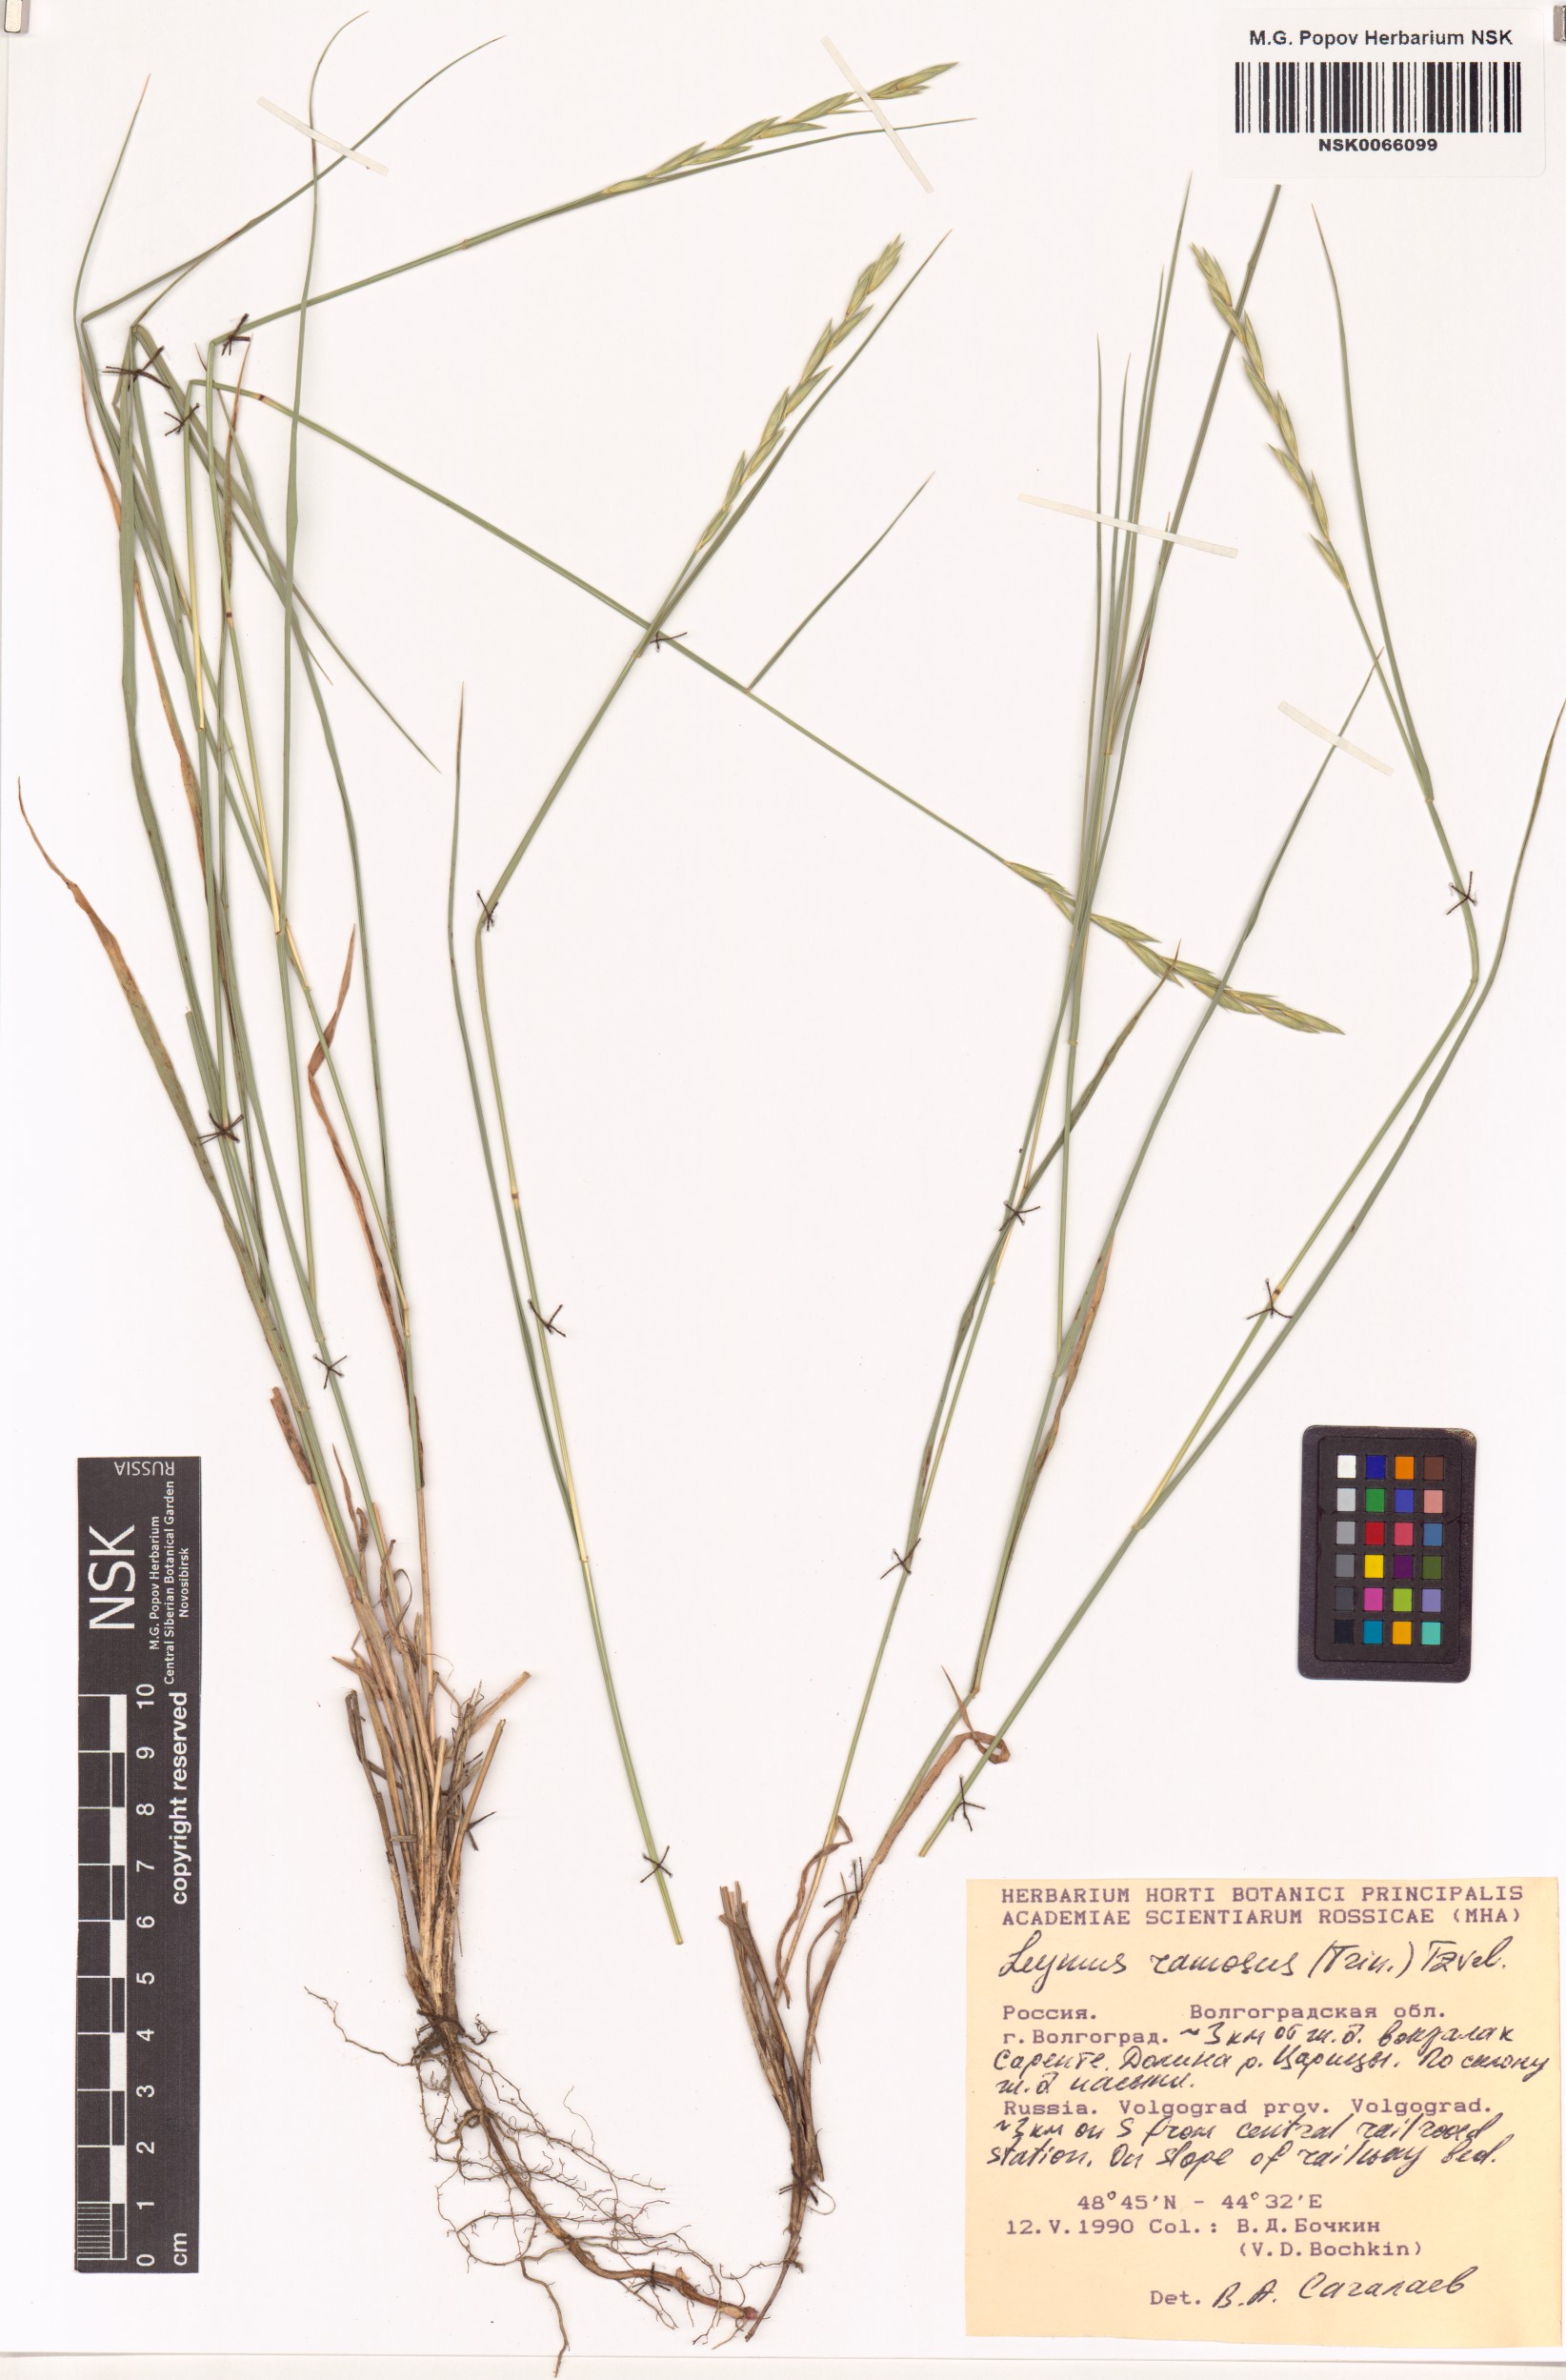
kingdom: Plantae
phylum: Tracheophyta
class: Liliopsida
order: Poales
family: Poaceae
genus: Leymus
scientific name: Leymus ramosus
